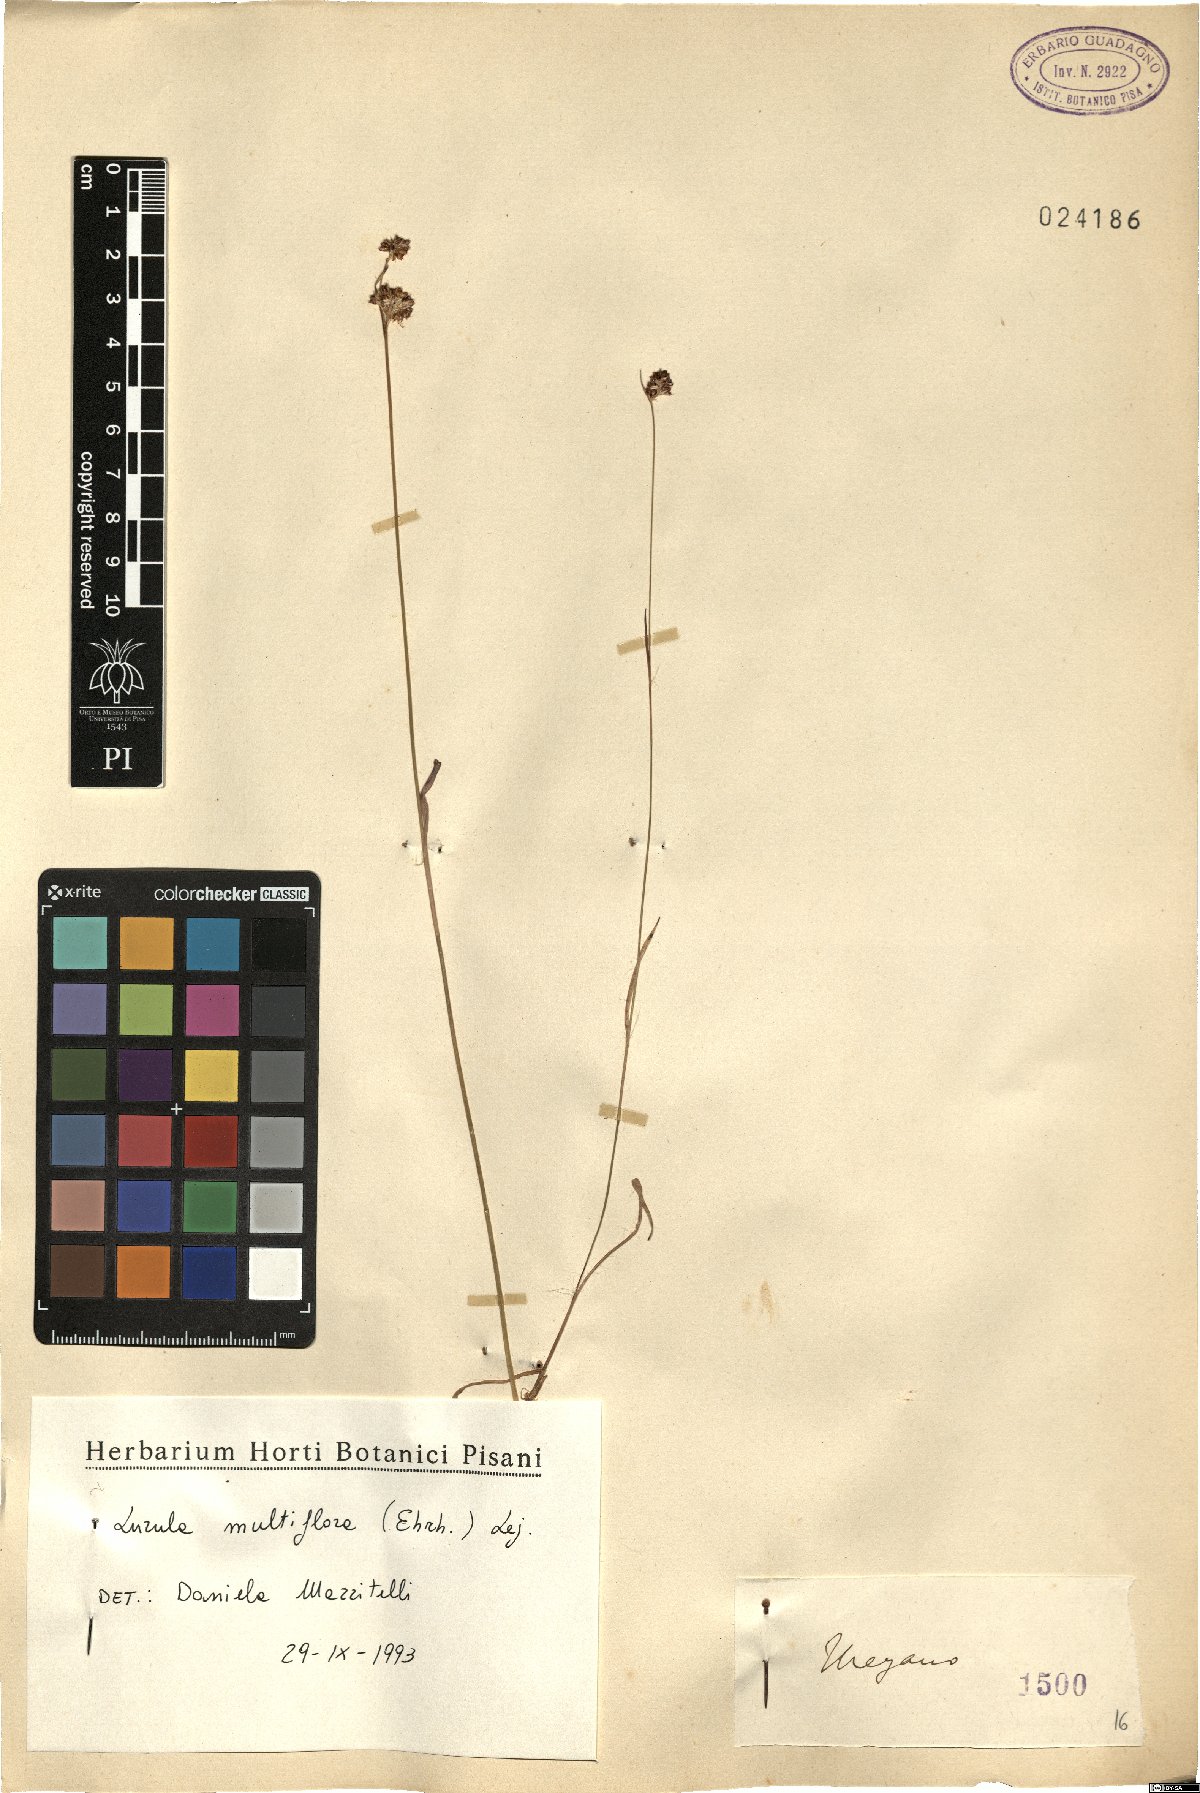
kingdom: Plantae
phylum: Tracheophyta
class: Liliopsida
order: Poales
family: Juncaceae
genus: Luzula
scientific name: Luzula multiflora
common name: Heath wood-rush
